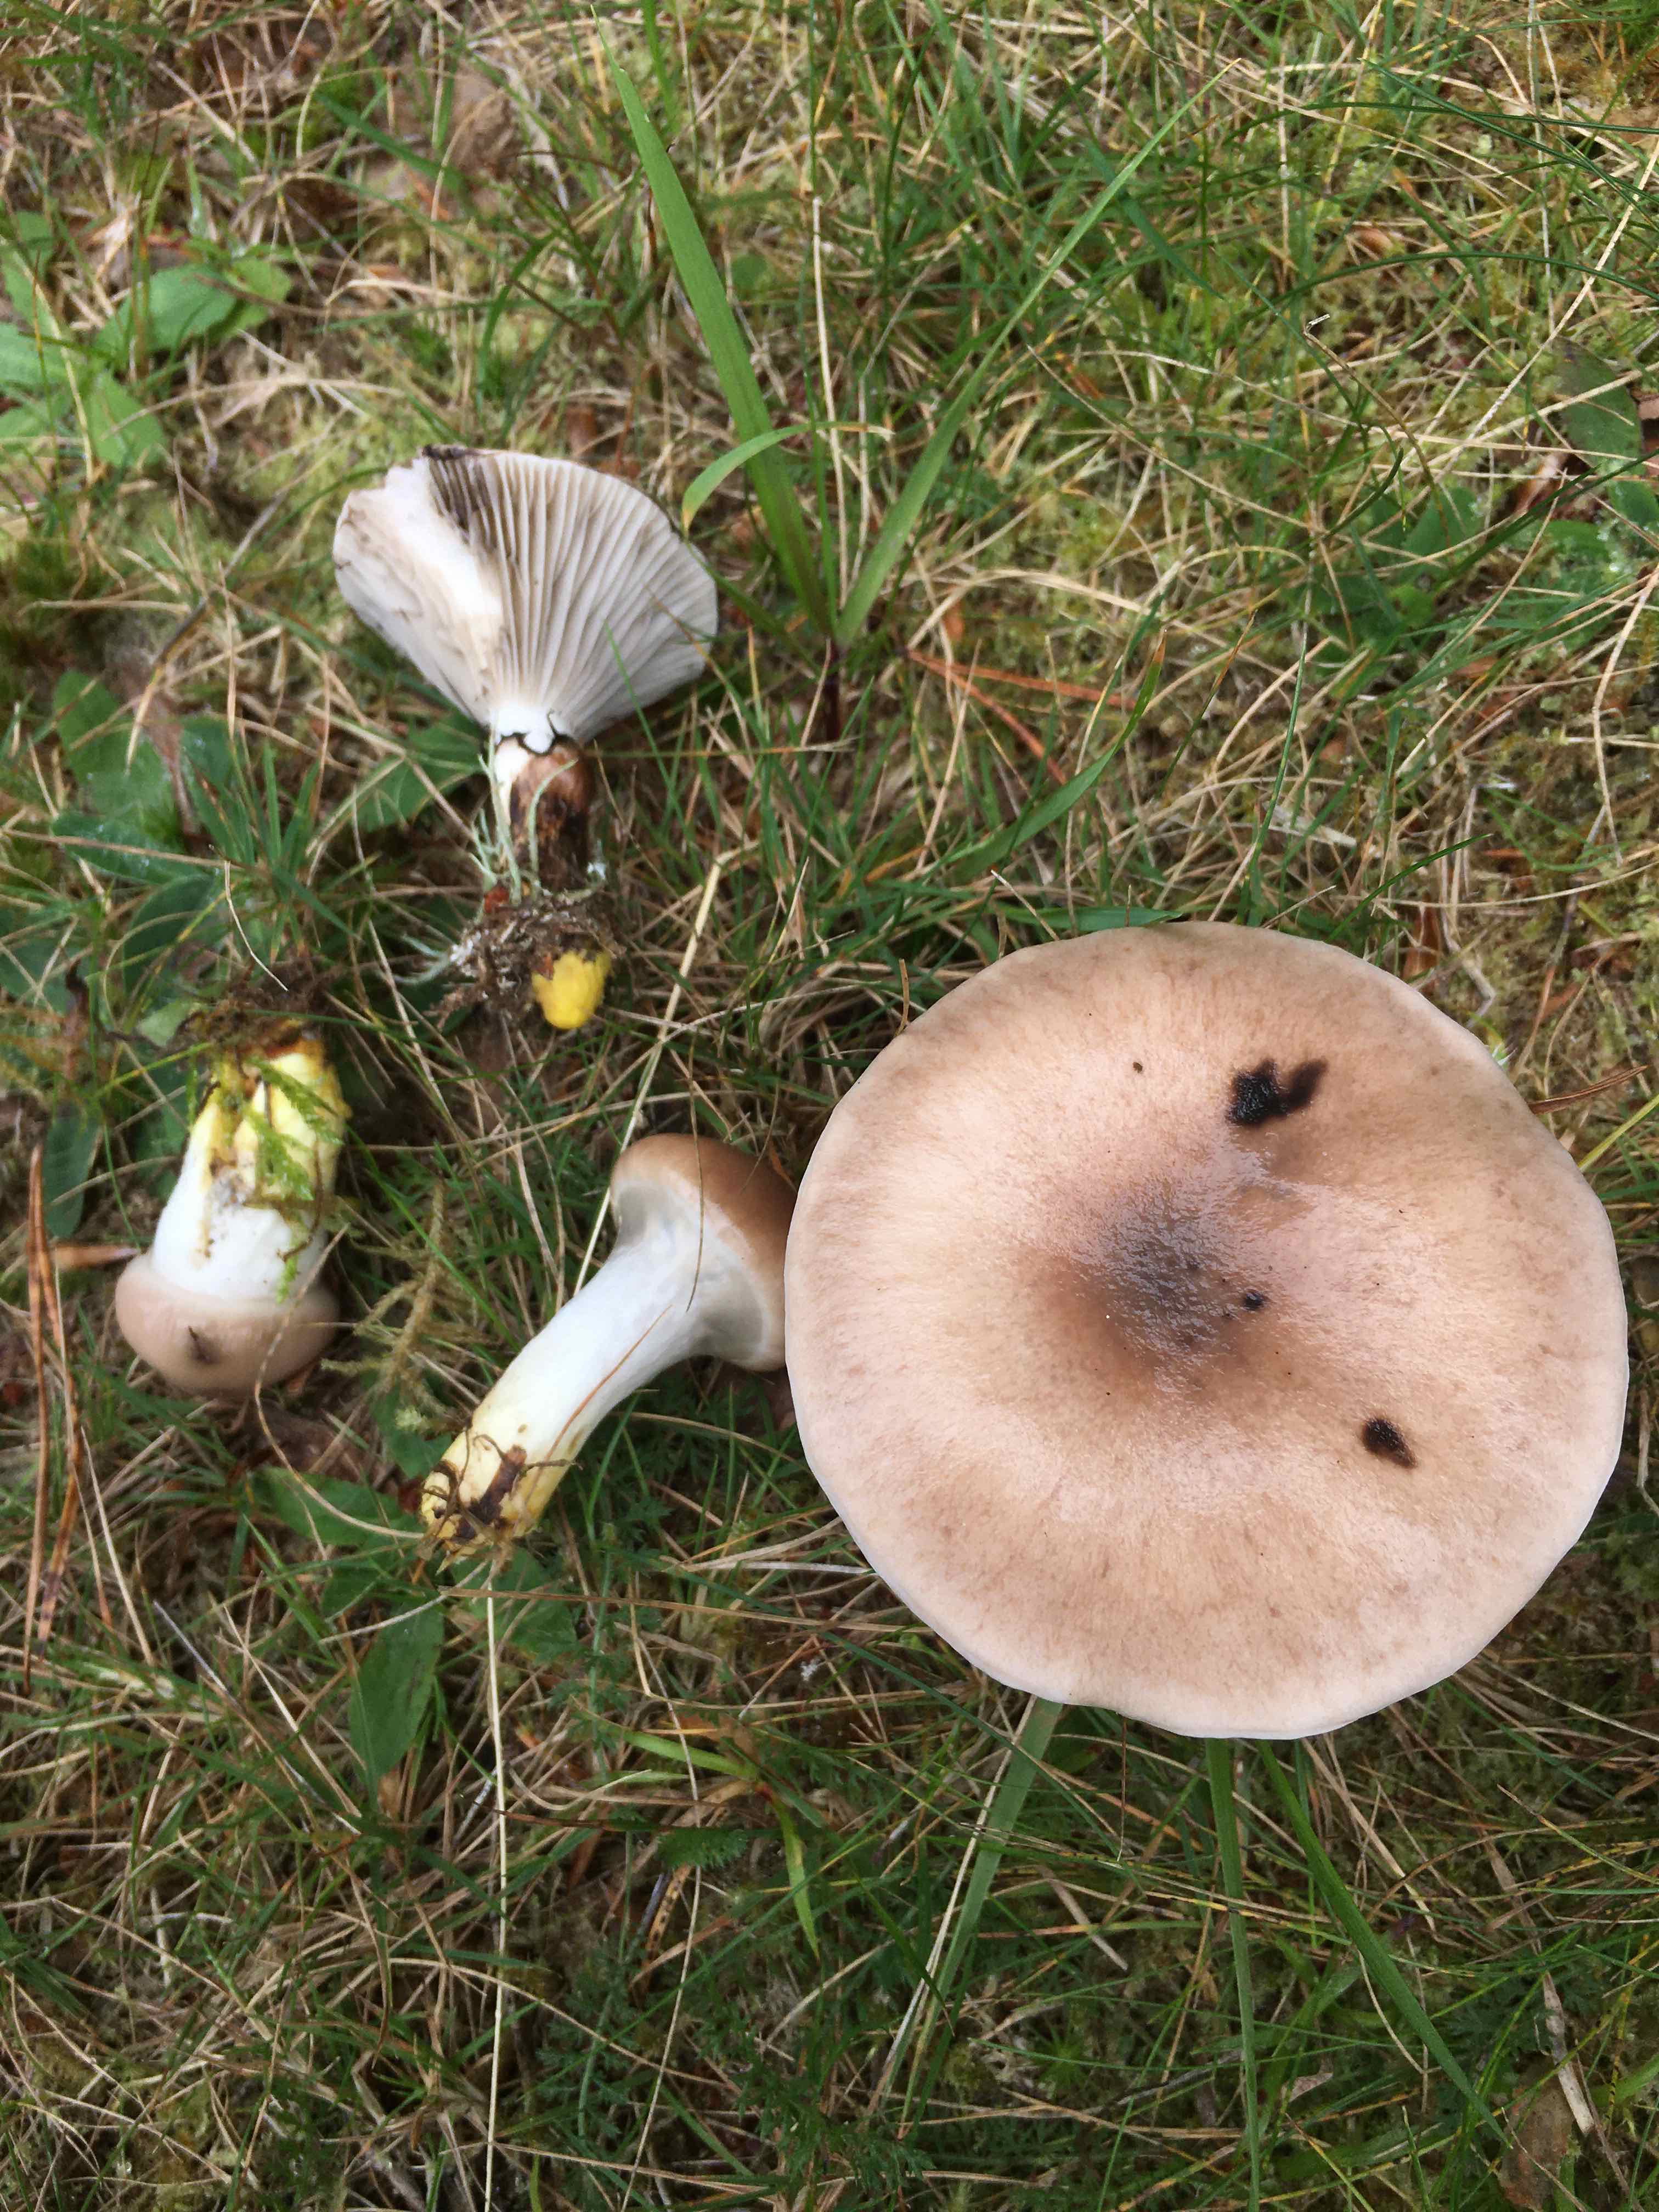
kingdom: Fungi
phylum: Basidiomycota
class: Agaricomycetes
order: Boletales
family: Gomphidiaceae
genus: Gomphidius
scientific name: Gomphidius glutinosus
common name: grå slimslør
